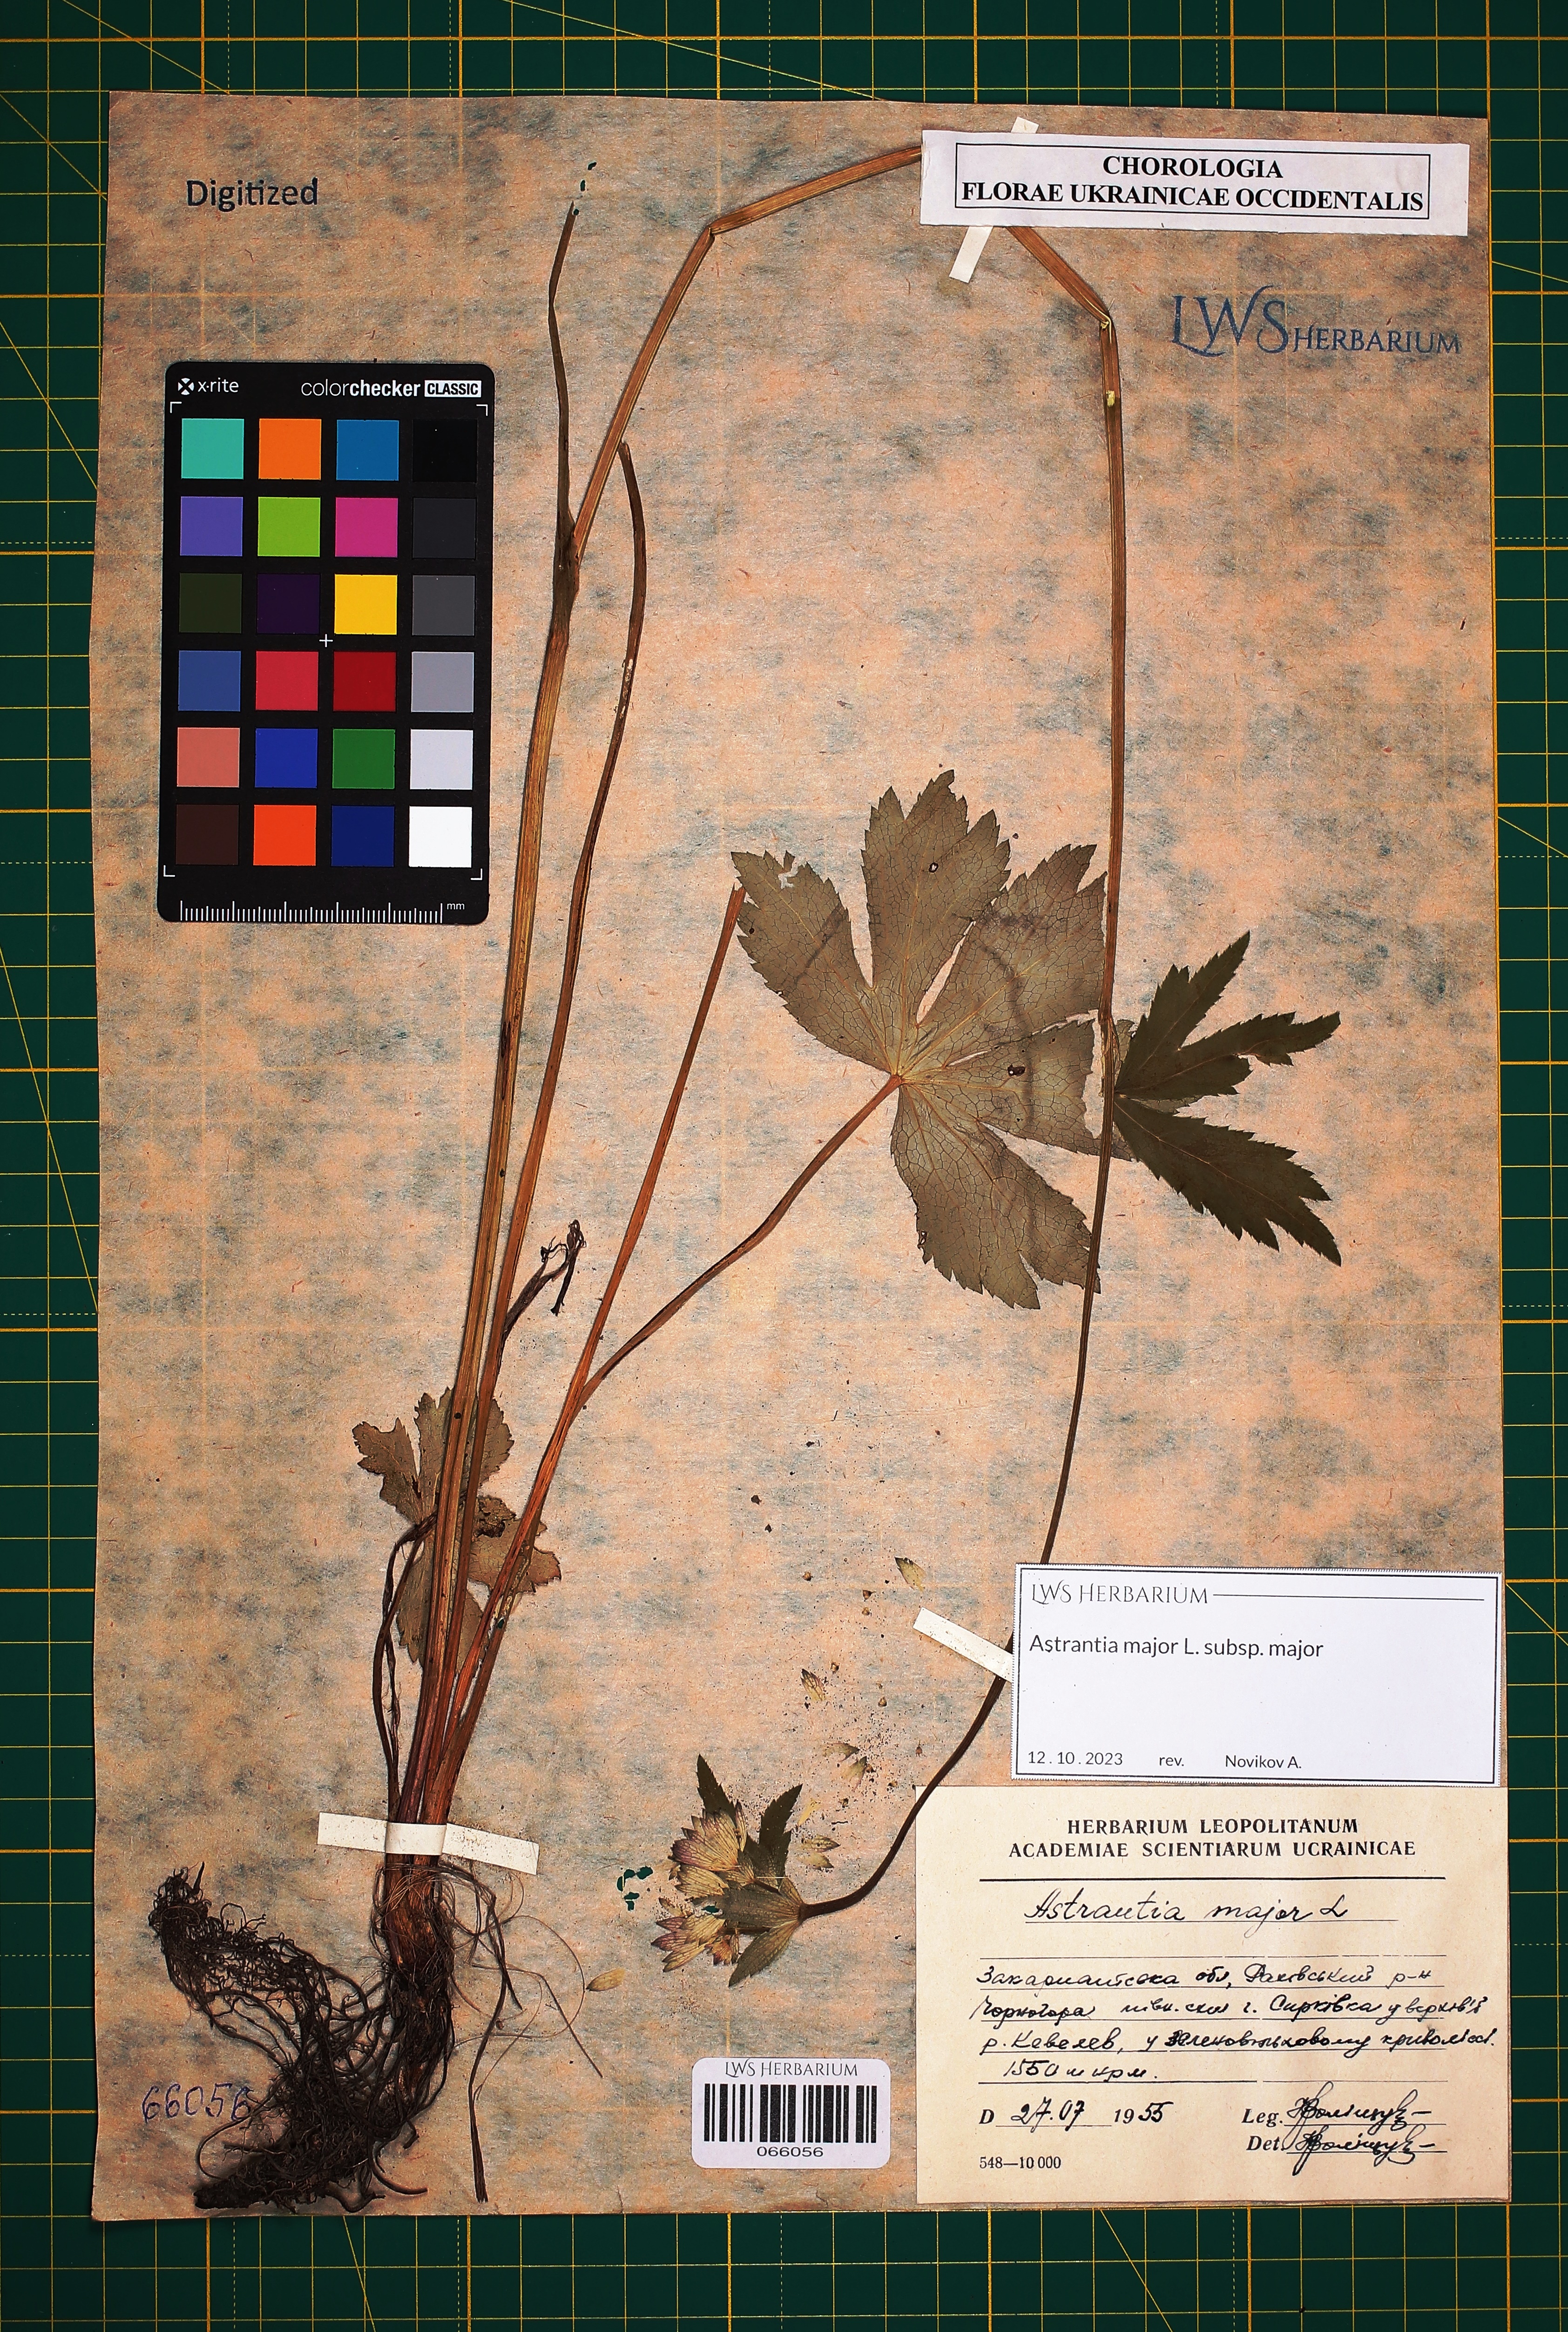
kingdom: Plantae
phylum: Tracheophyta
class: Magnoliopsida
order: Apiales
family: Apiaceae
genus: Astrantia
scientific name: Astrantia major
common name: Greater masterwort
